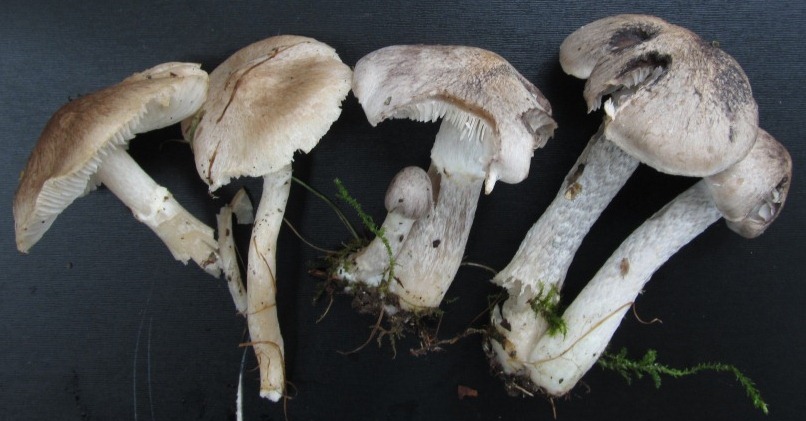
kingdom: Fungi
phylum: Basidiomycota
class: Agaricomycetes
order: Agaricales
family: Tricholomataceae
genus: Tricholoma
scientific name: Tricholoma cingulatum
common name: ring-ridderhat
